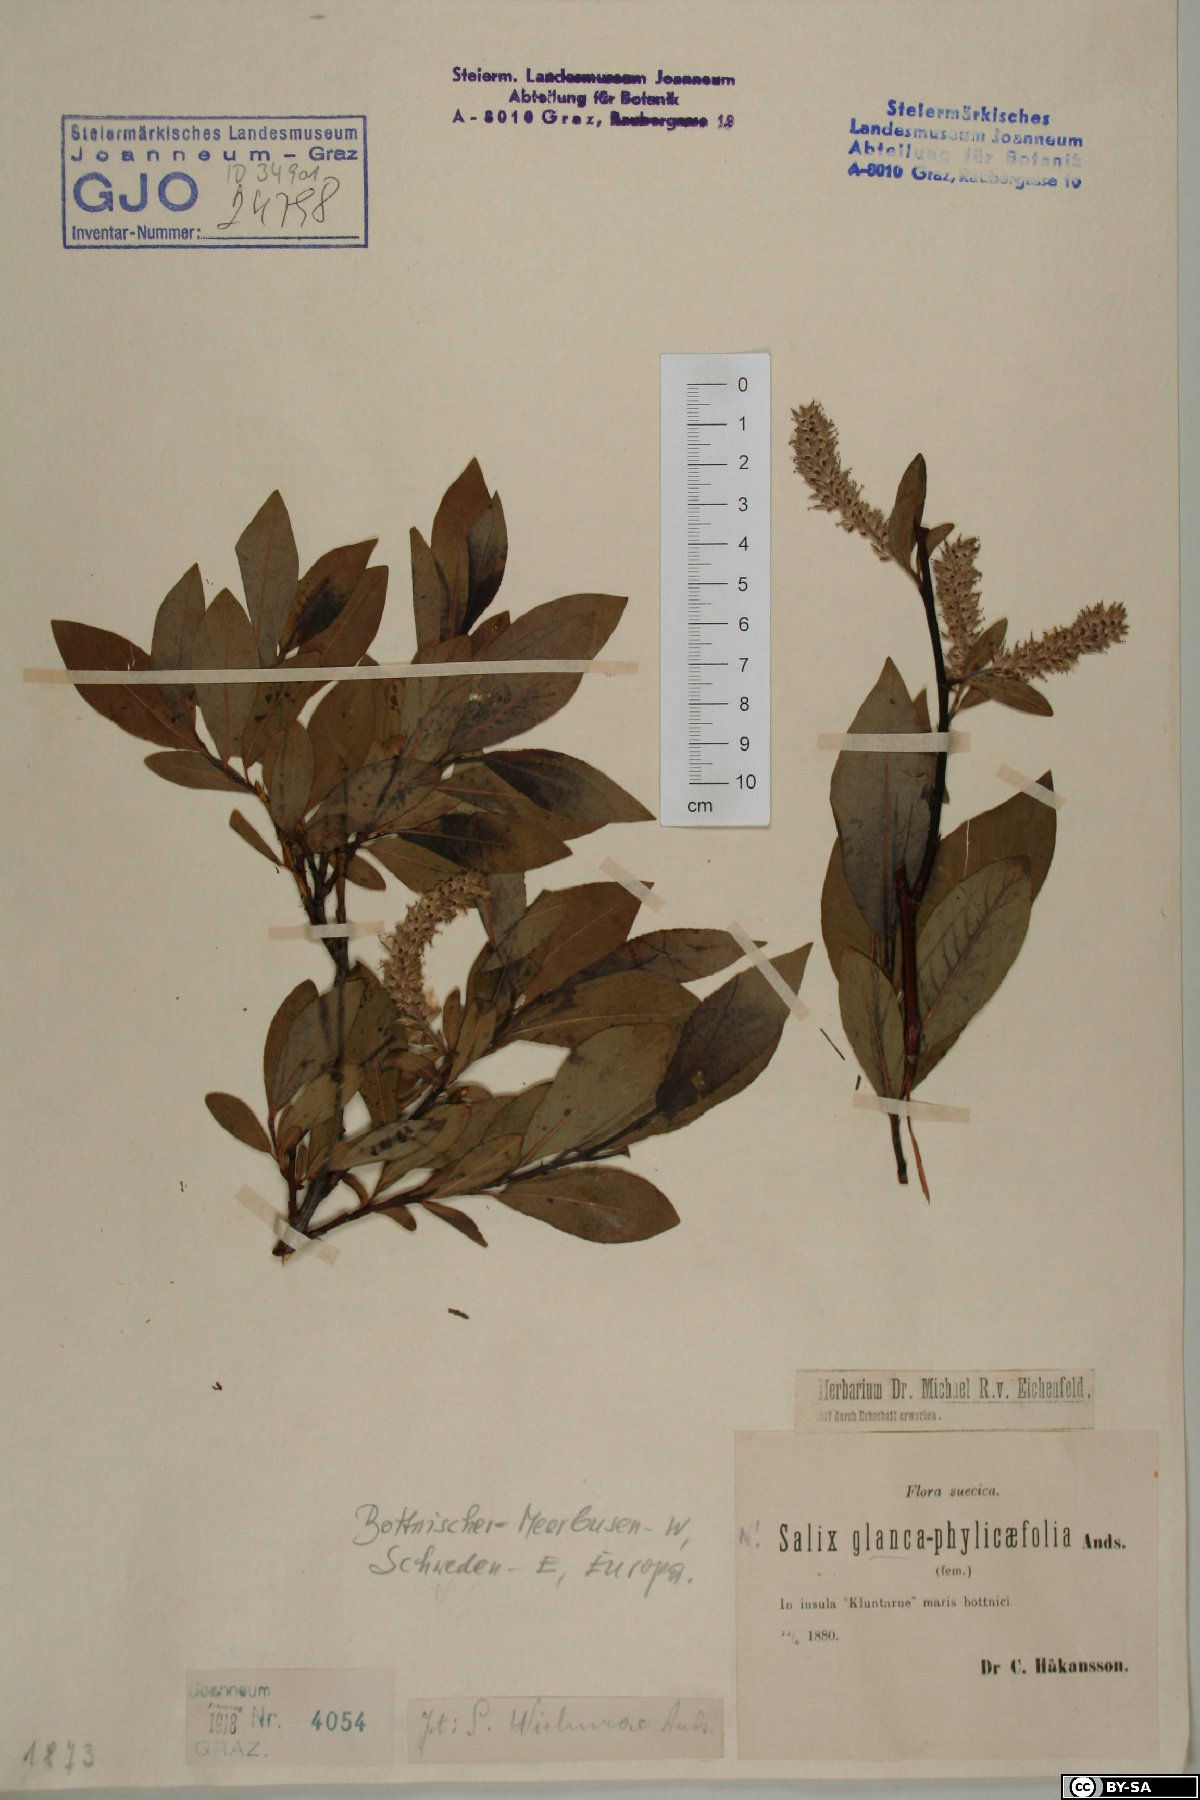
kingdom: Plantae
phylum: Tracheophyta
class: Magnoliopsida
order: Malpighiales
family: Salicaceae
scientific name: Salicaceae
